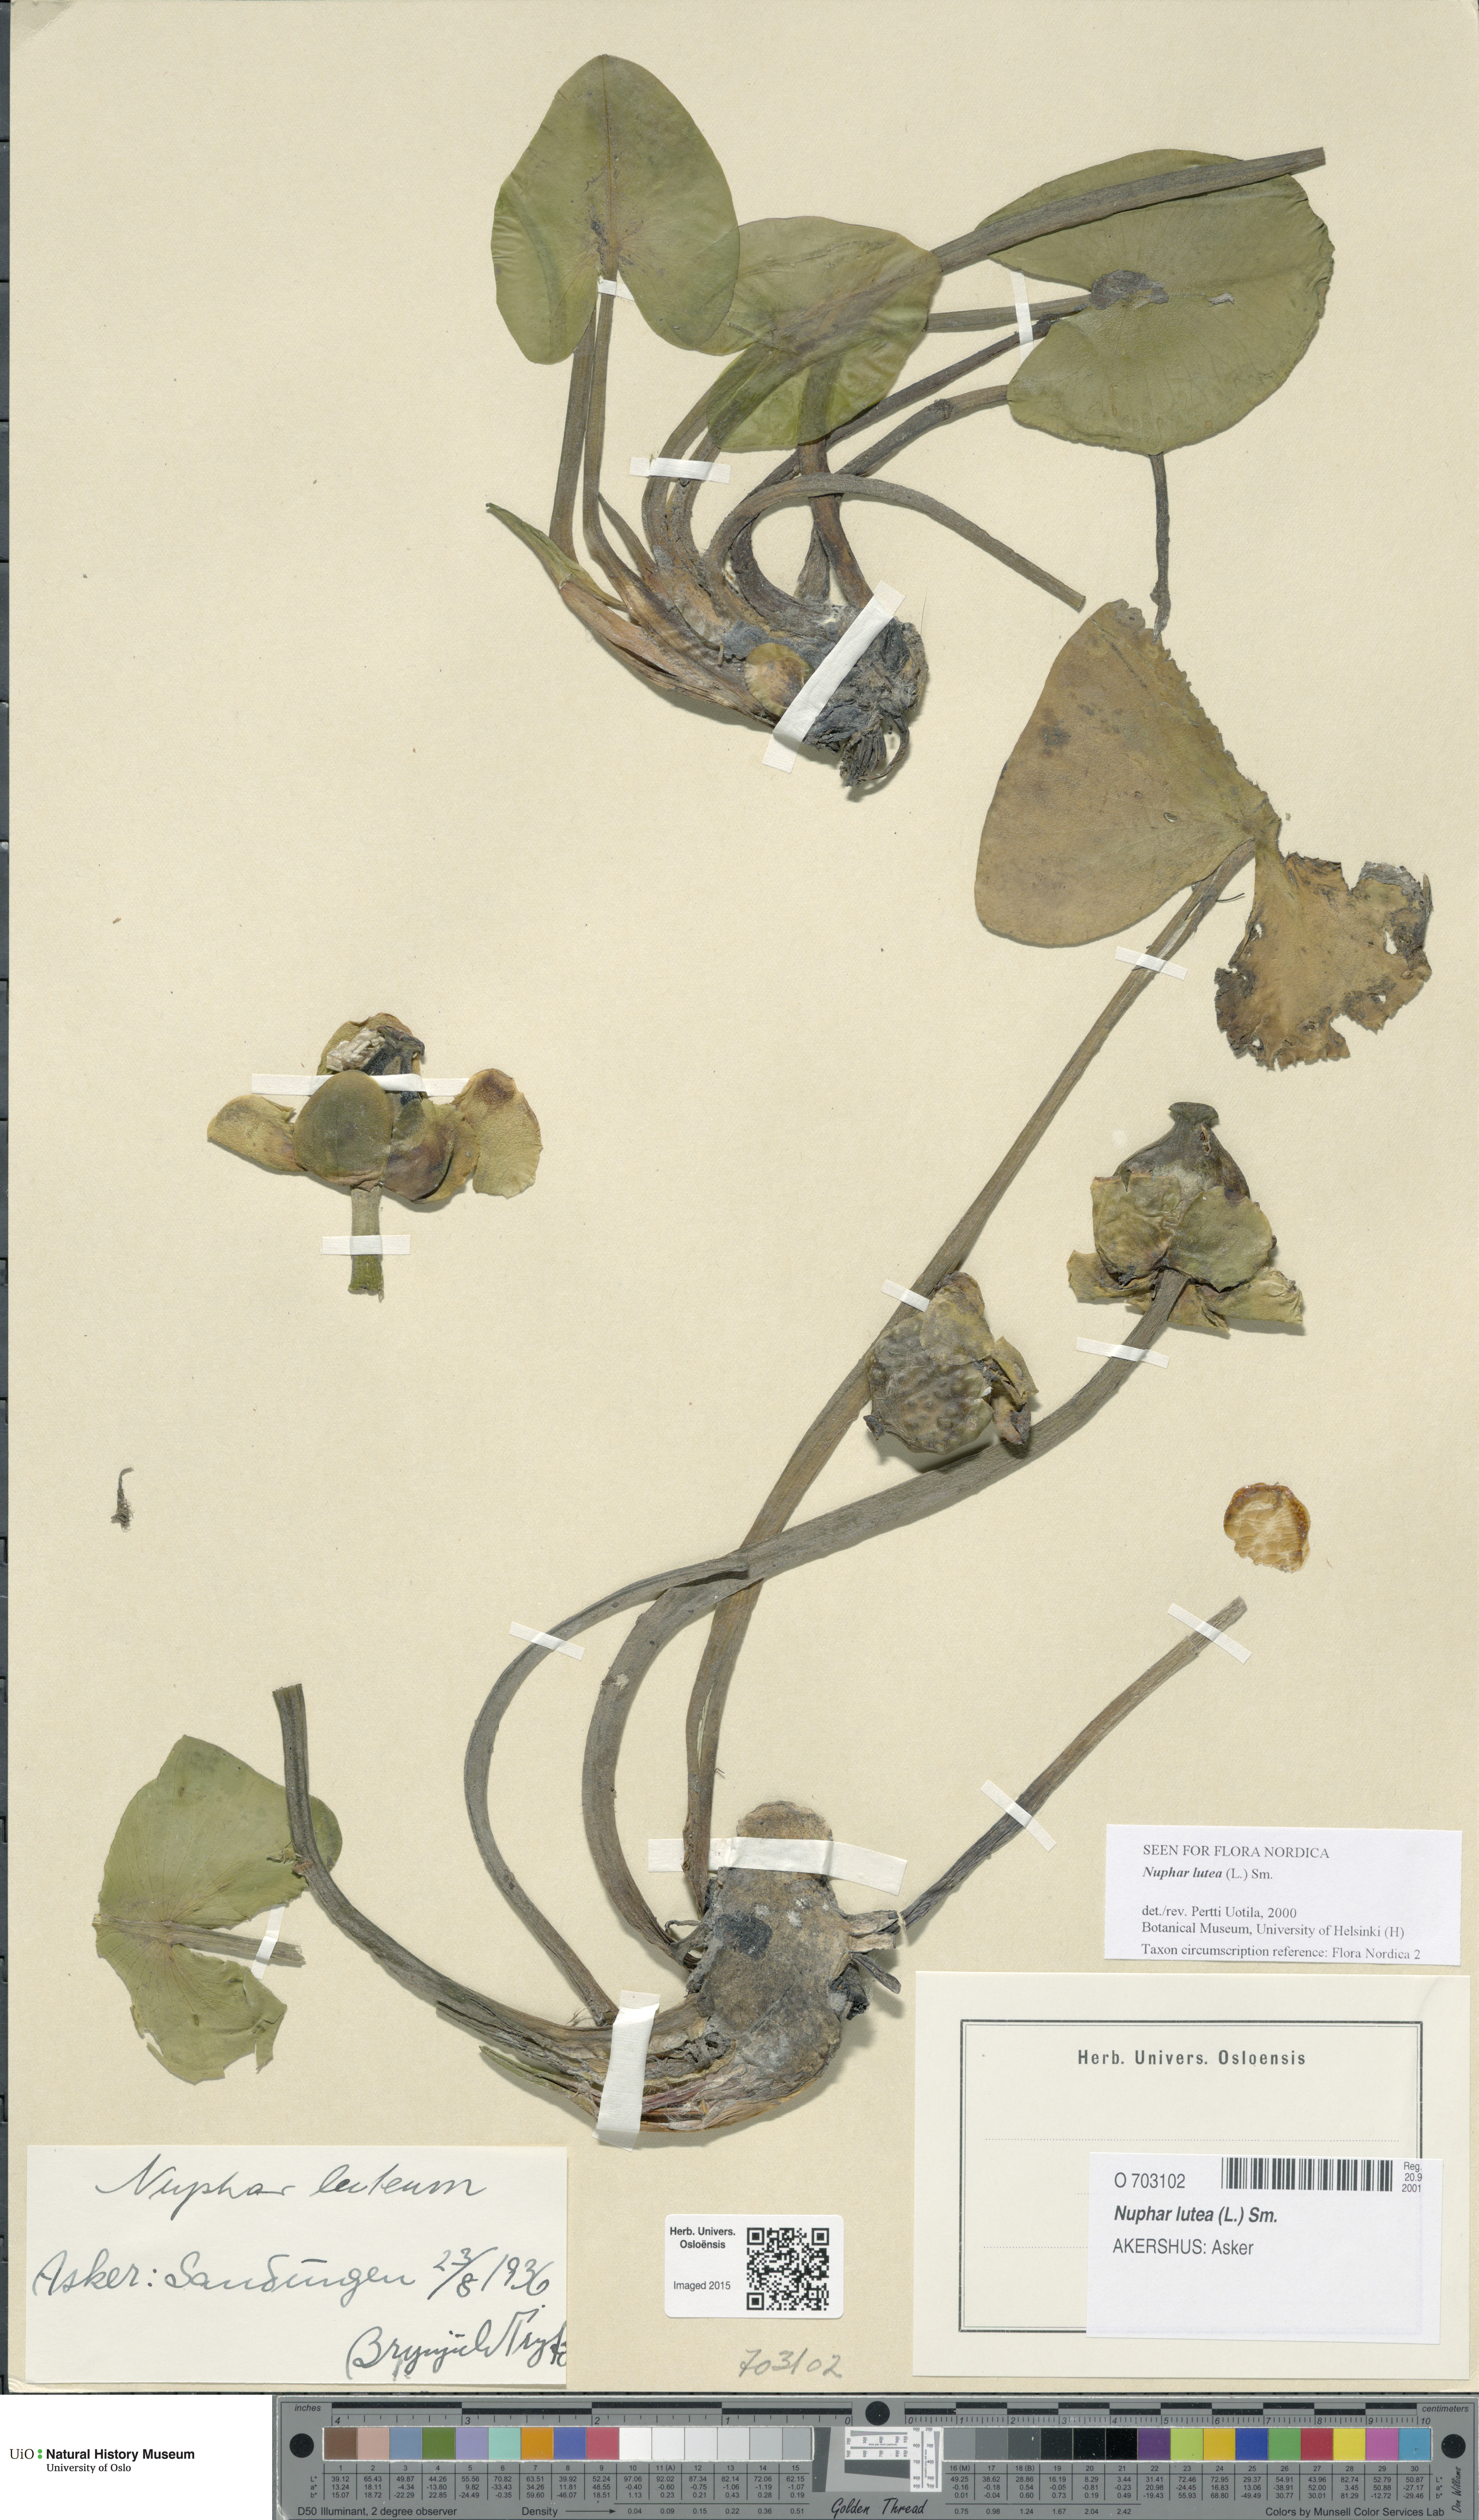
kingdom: Plantae
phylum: Tracheophyta
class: Magnoliopsida
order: Nymphaeales
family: Nymphaeaceae
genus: Nuphar
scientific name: Nuphar lutea
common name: Yellow water-lily
